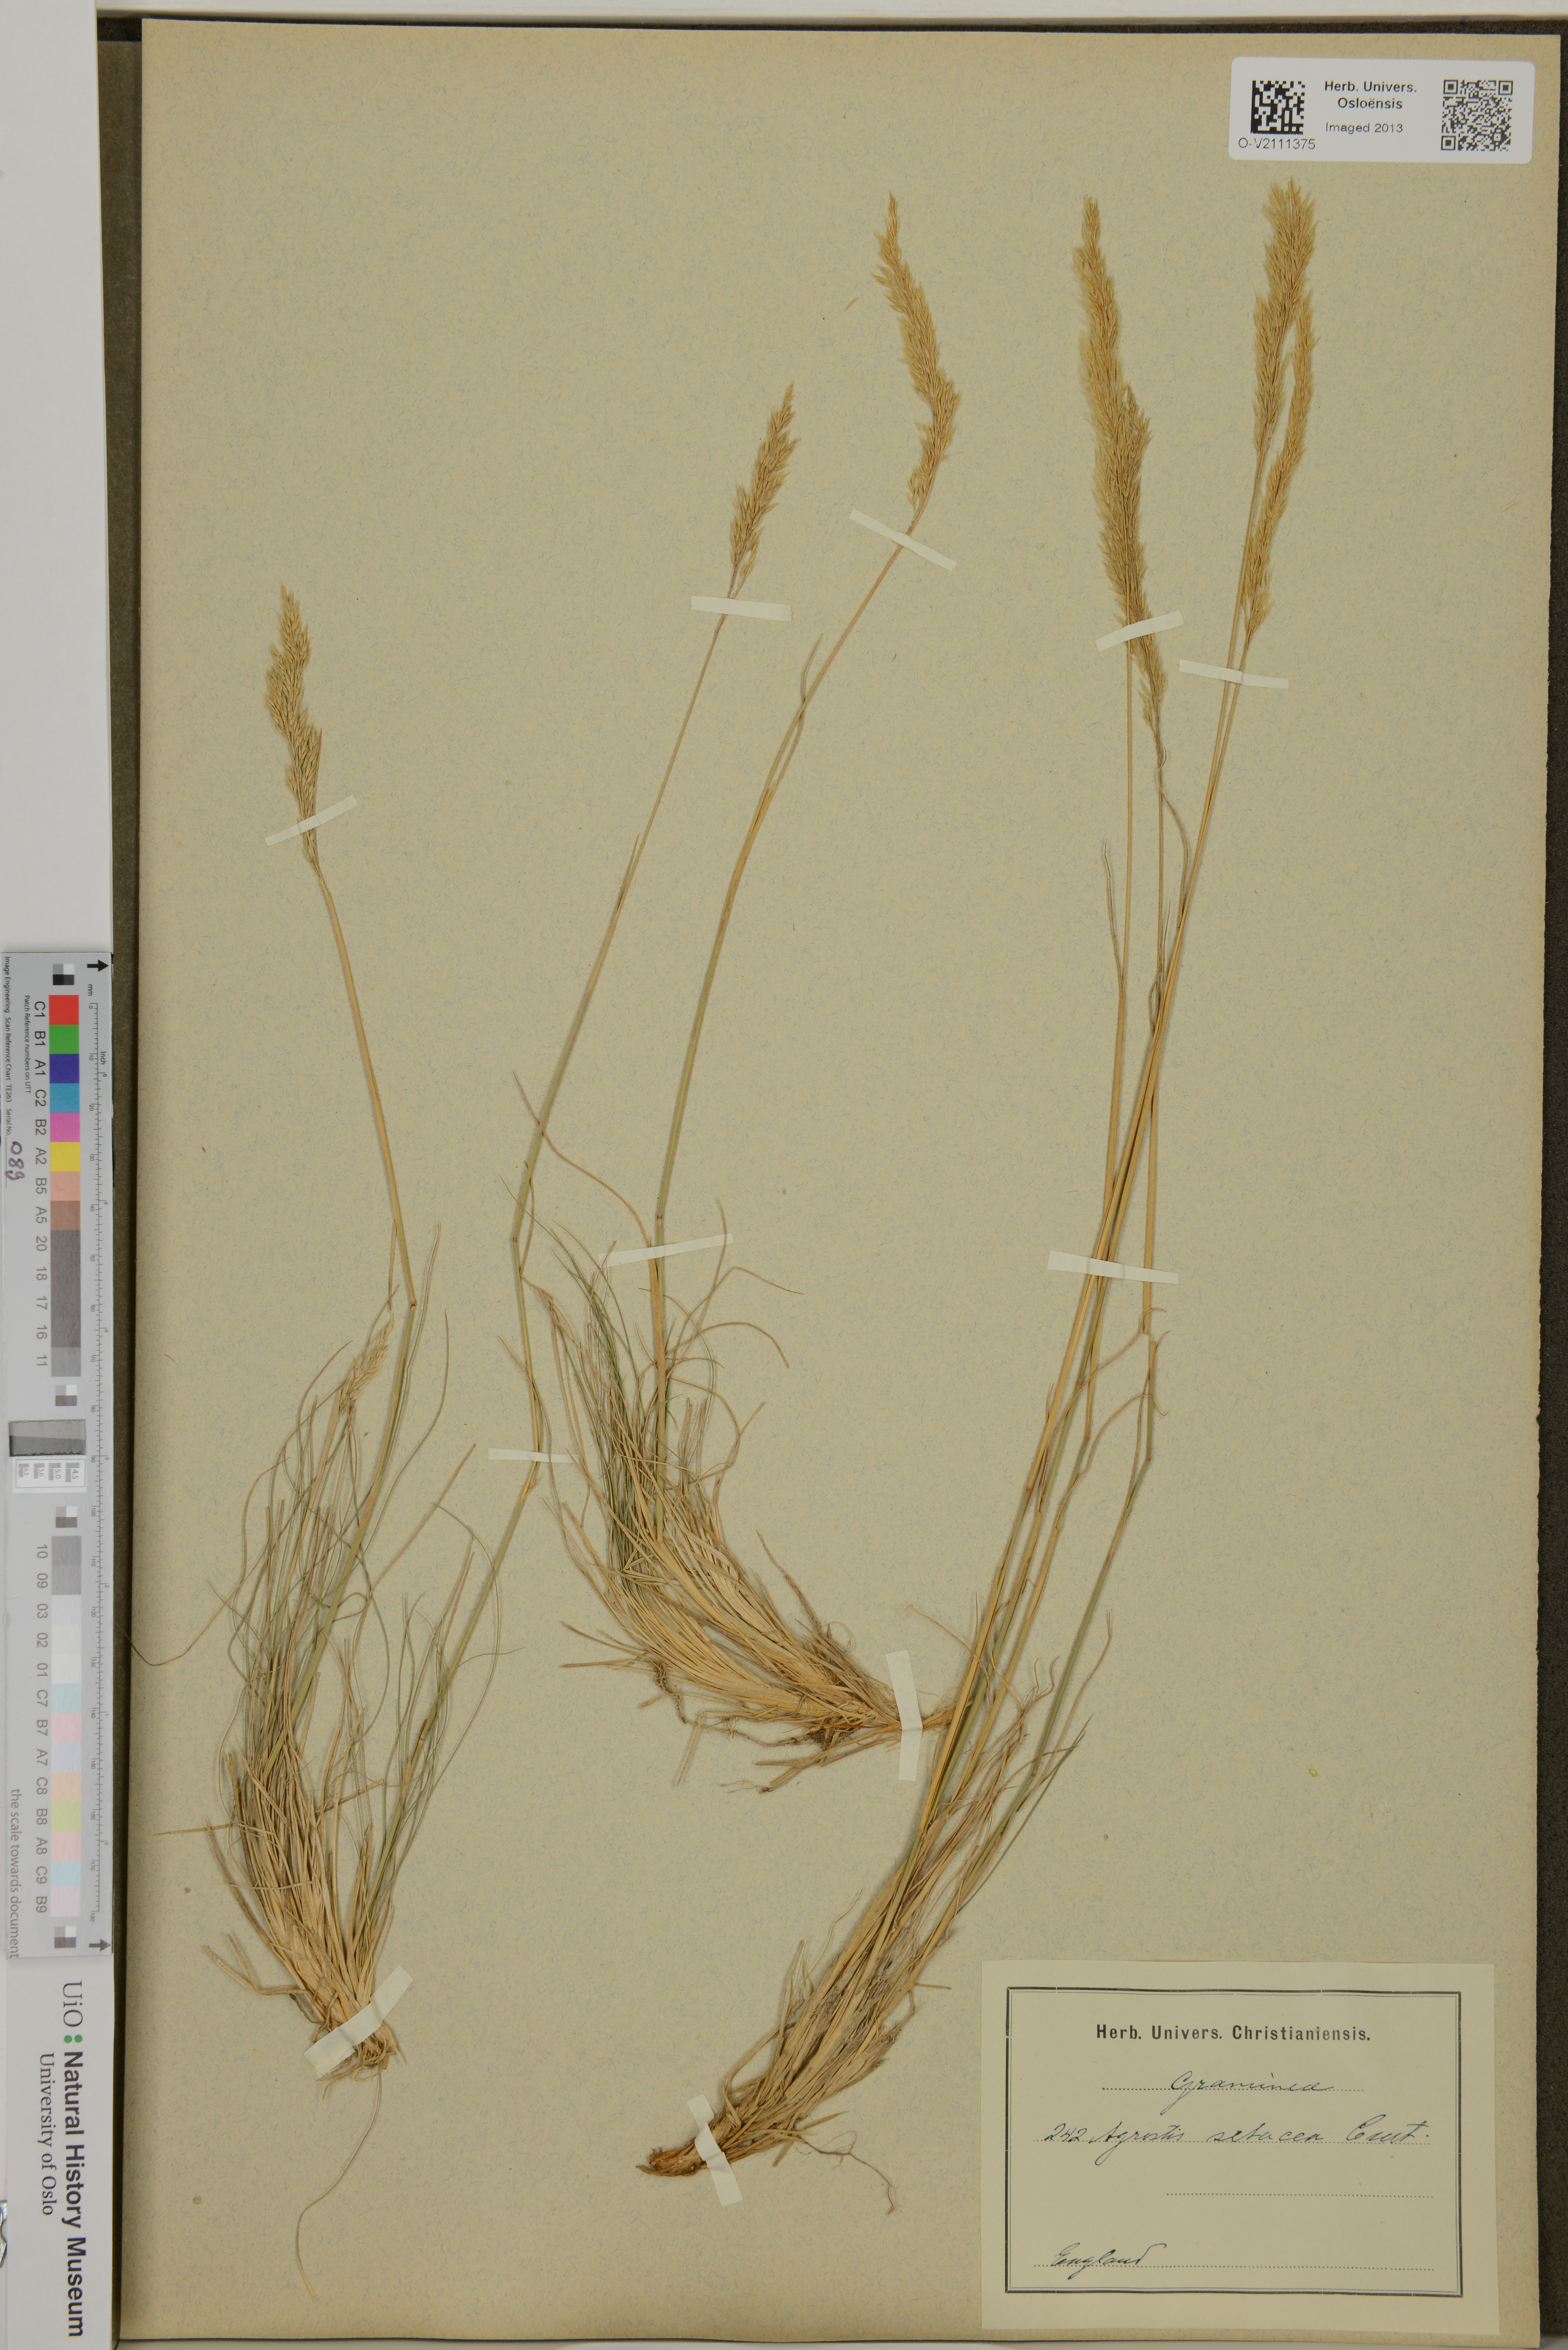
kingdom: Plantae
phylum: Tracheophyta
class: Liliopsida
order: Poales
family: Poaceae
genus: Agrostis
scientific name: Agrostis rupestris
